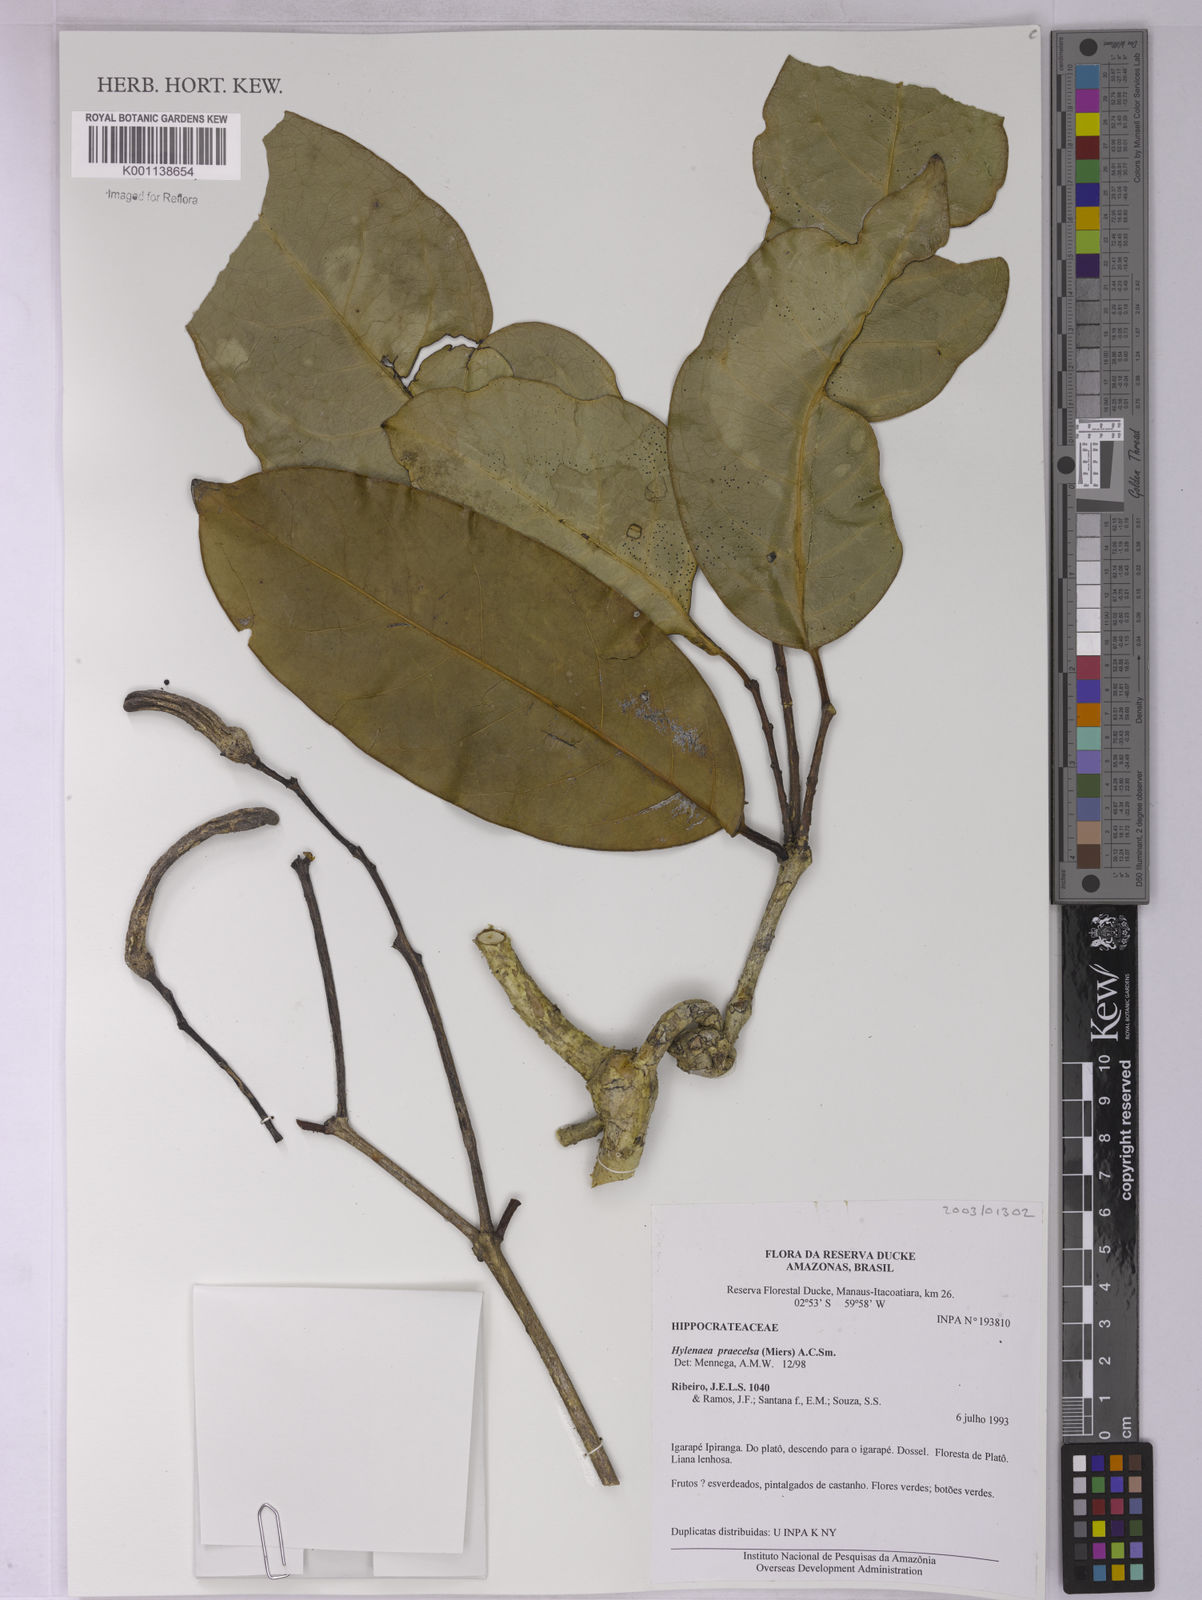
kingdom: Plantae
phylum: Tracheophyta
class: Magnoliopsida
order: Celastrales
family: Celastraceae
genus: Hylenaea
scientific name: Hylenaea praecelsa
